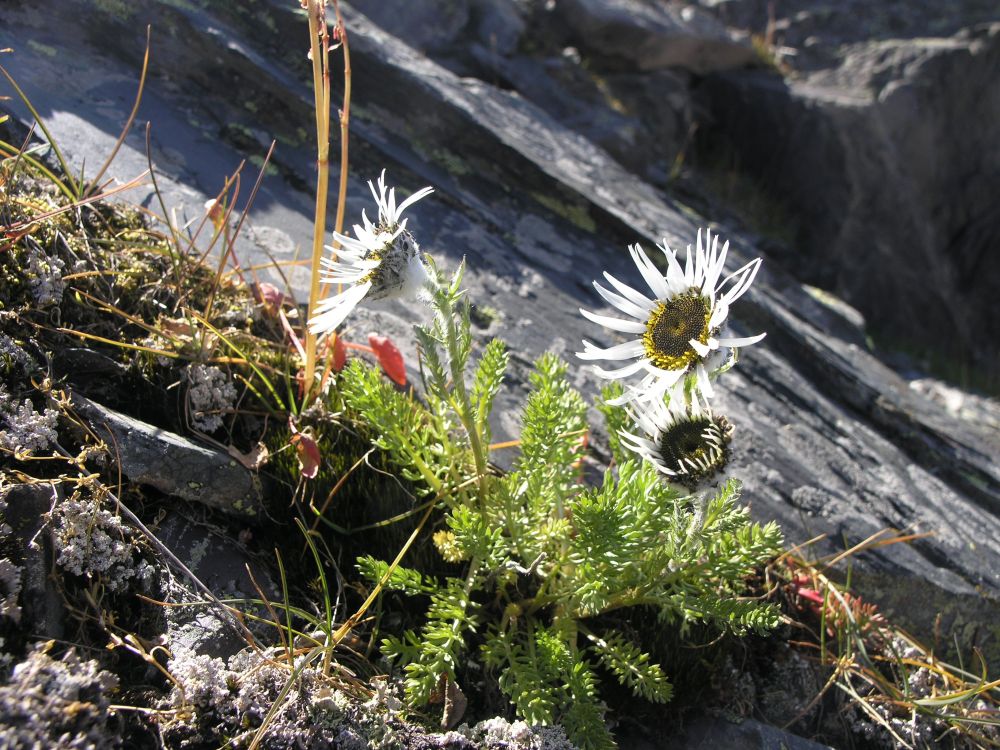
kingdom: Plantae
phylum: Tracheophyta
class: Magnoliopsida
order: Asterales
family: Asteraceae
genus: Tanacetum
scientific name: Tanacetum pulchrum
